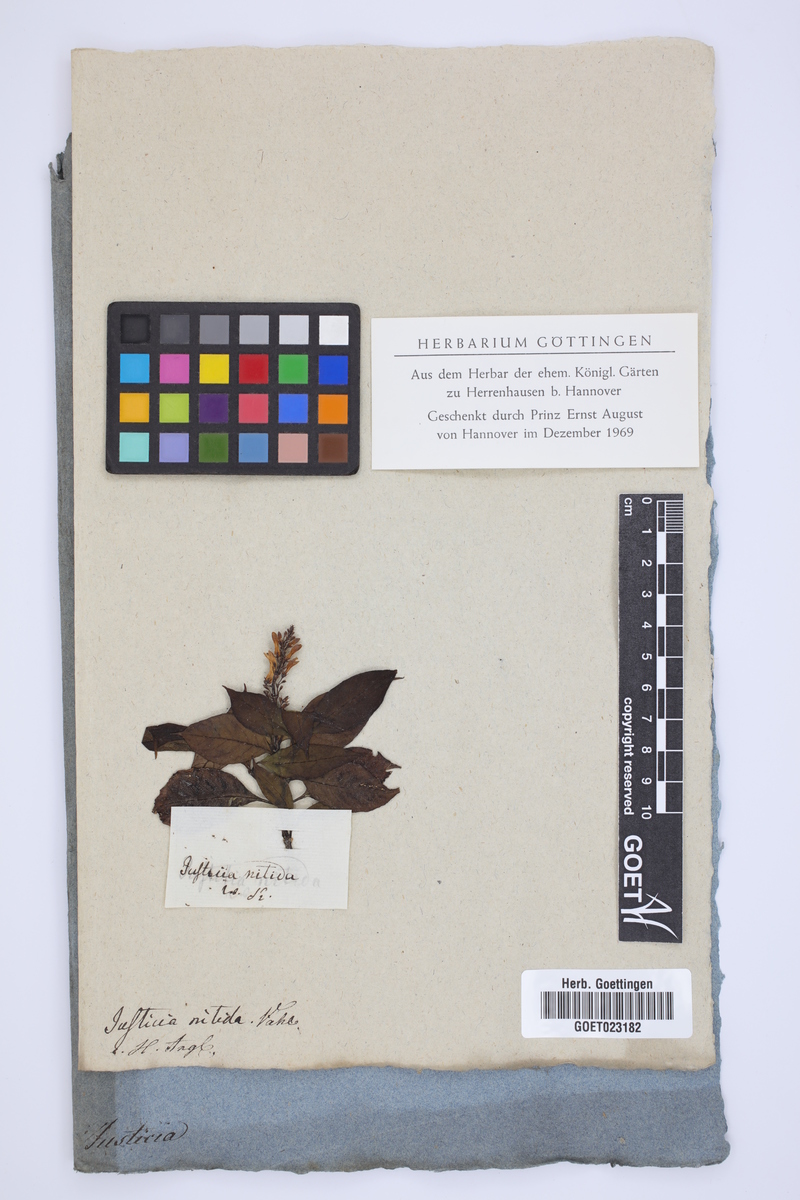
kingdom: Plantae
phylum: Tracheophyta
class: Magnoliopsida
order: Lamiales
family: Acanthaceae
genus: Odontonema
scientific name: Odontonema nitidum
